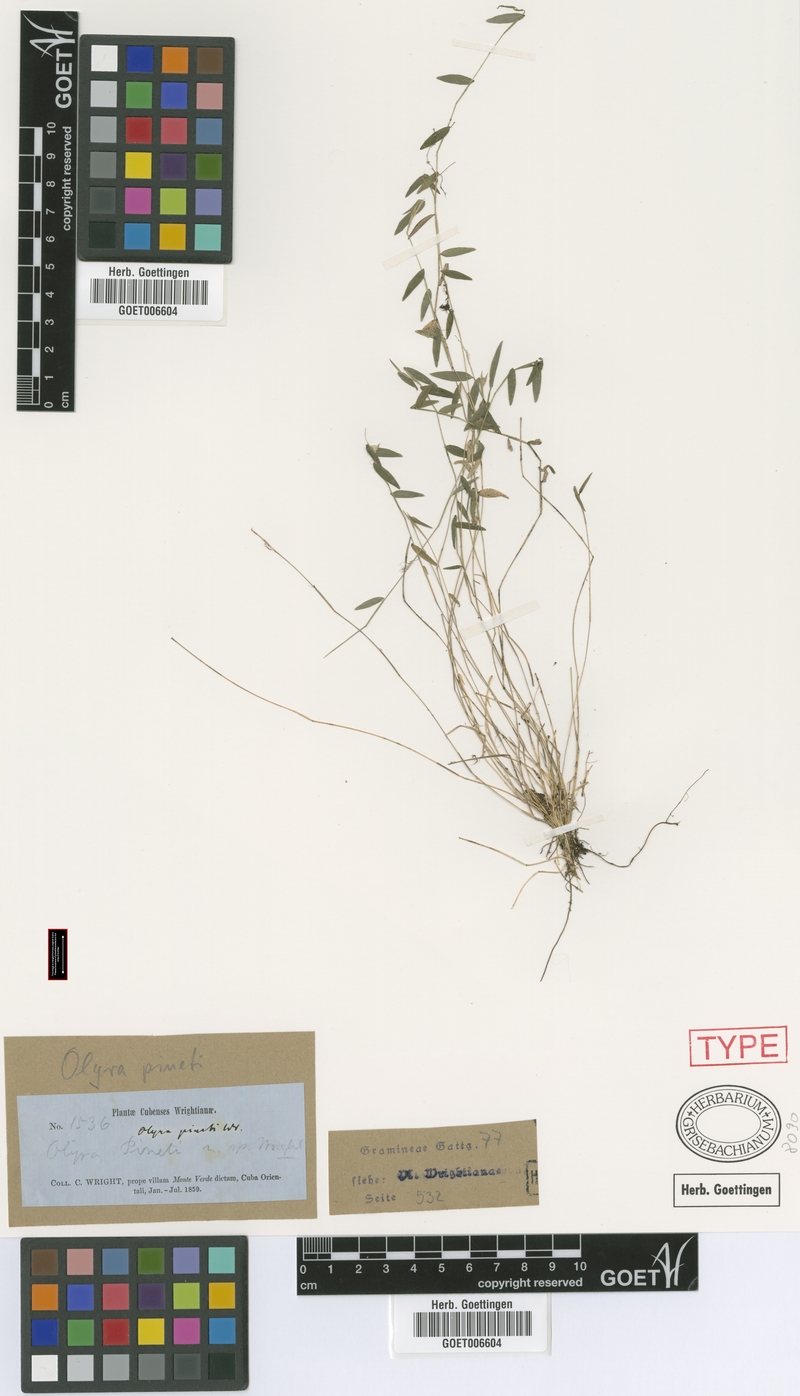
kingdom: Plantae
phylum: Tracheophyta
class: Liliopsida
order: Poales
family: Poaceae
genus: Lithachne
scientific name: Lithachne pinetii
